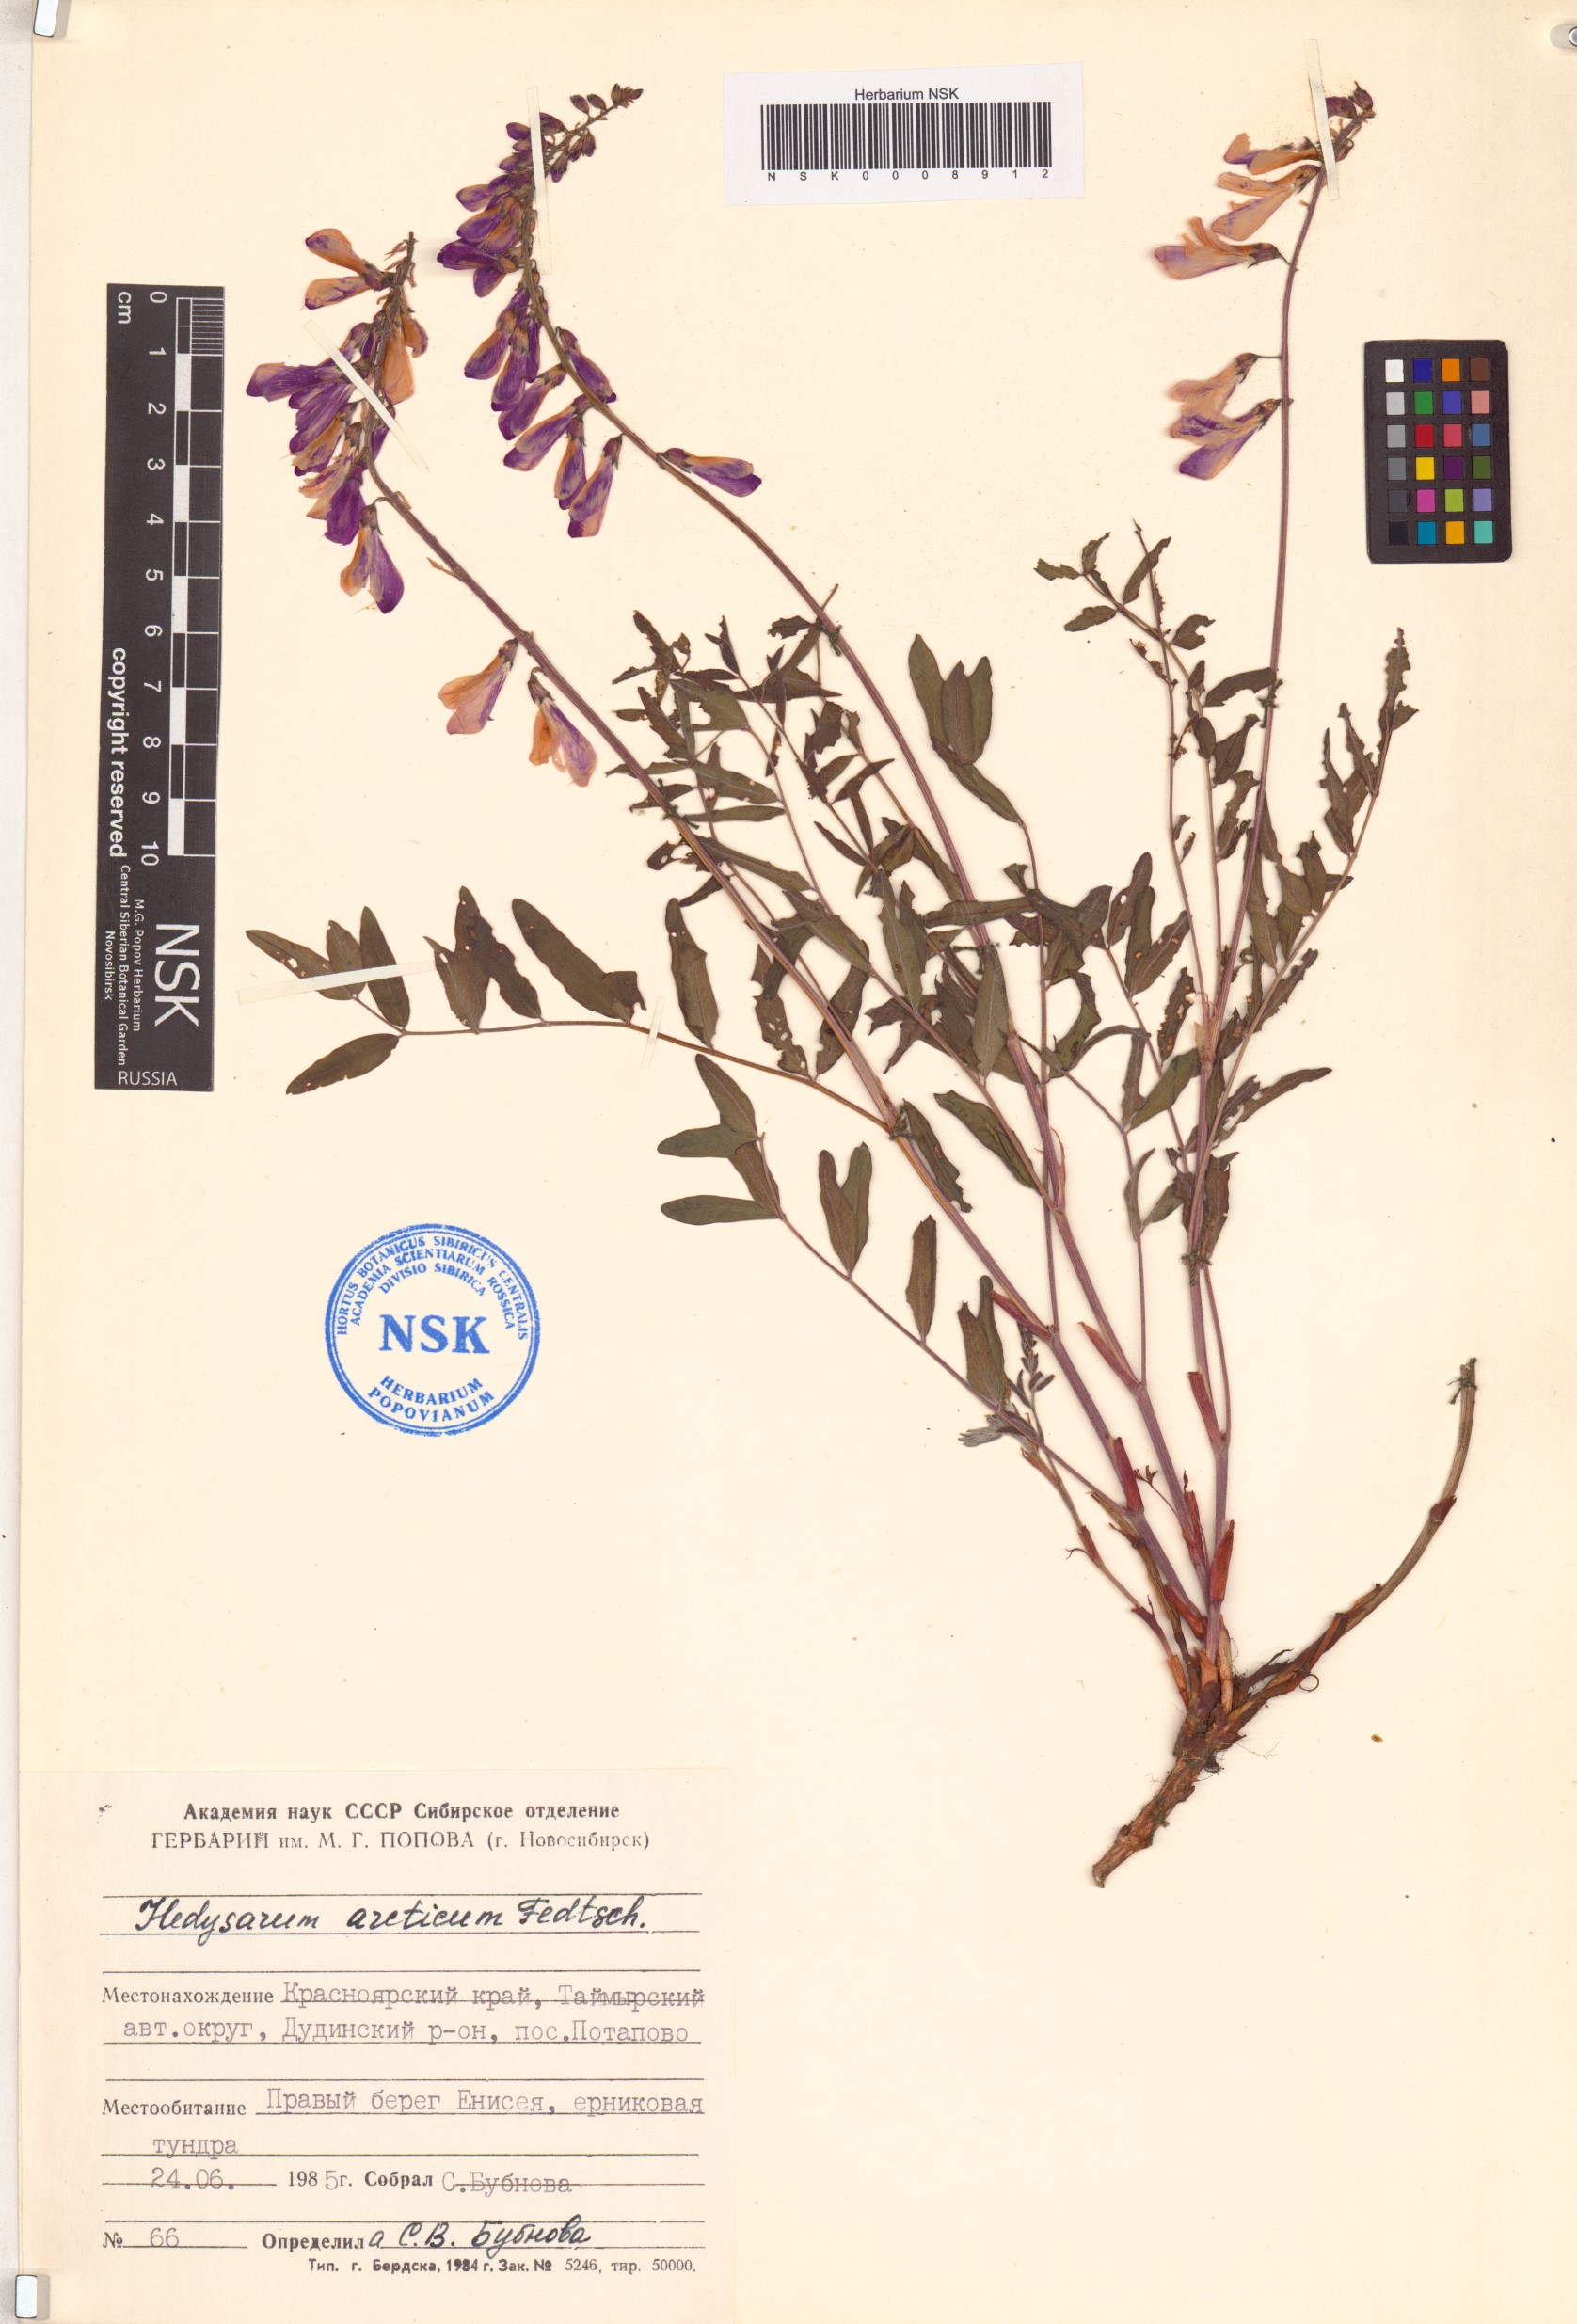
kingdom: Plantae
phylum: Tracheophyta
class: Magnoliopsida
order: Fabales
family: Fabaceae
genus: Hedysarum
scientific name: Hedysarum hedysaroides
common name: Alpine french-honeysuckle
